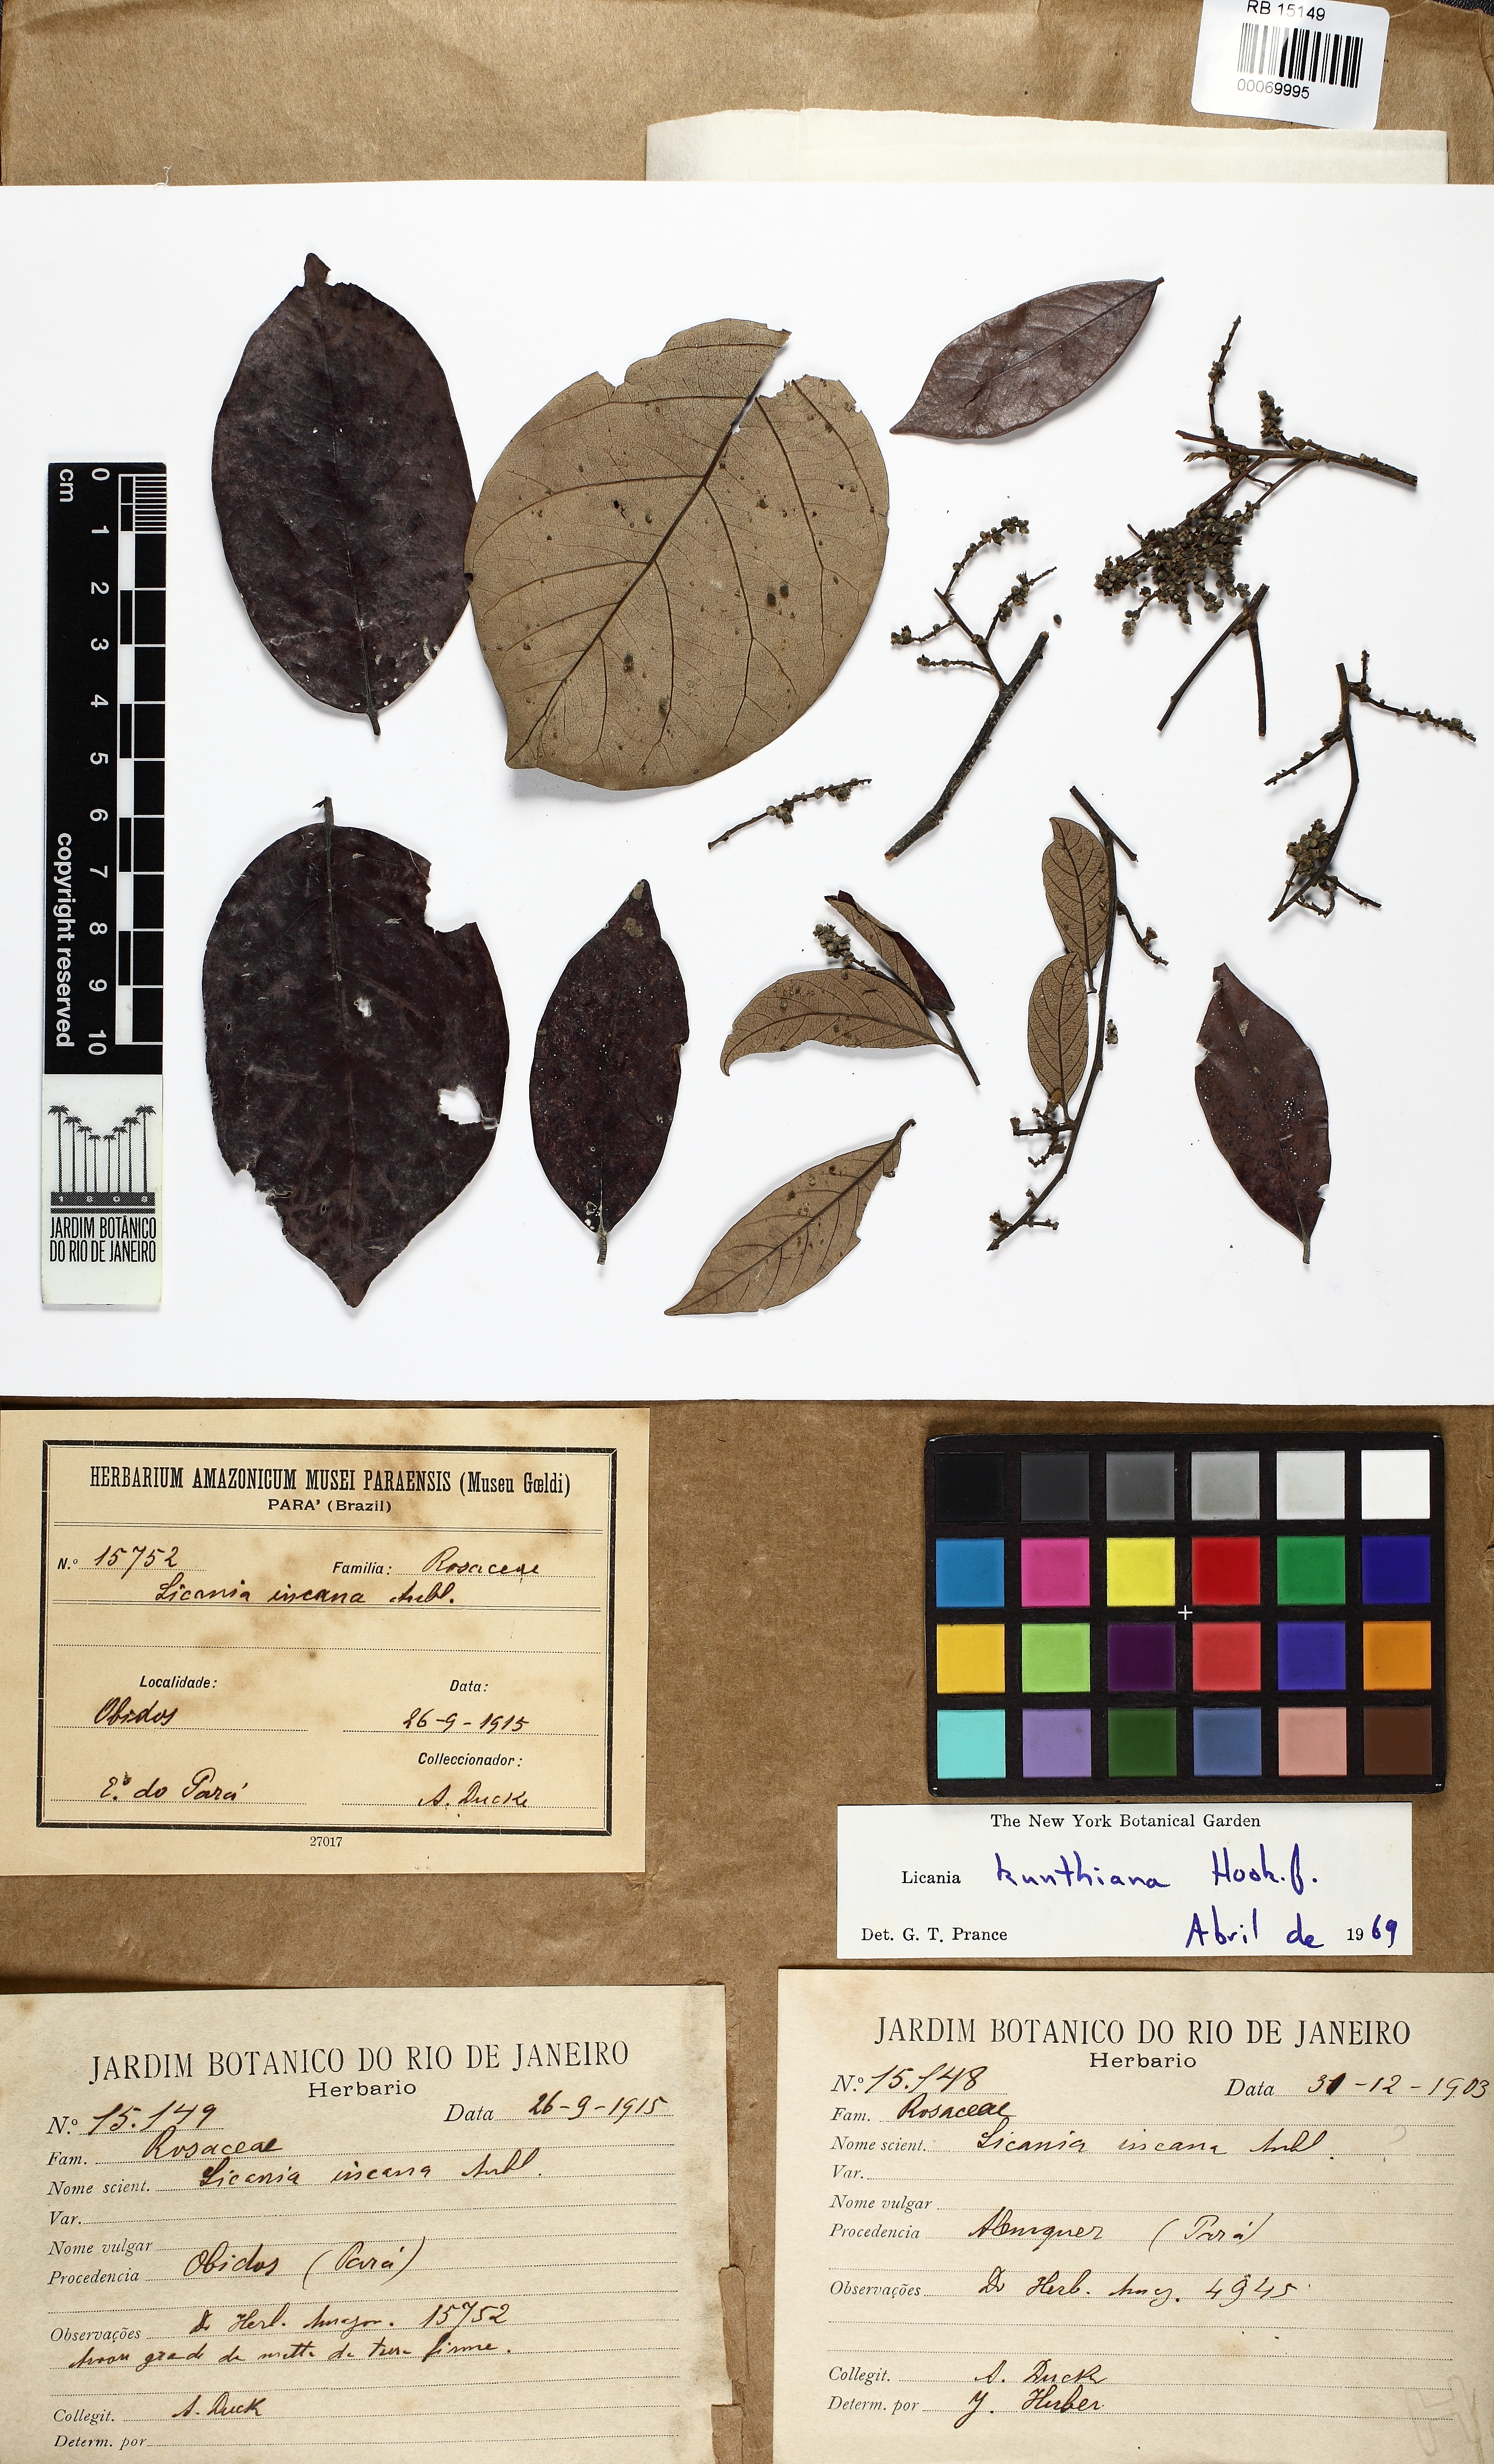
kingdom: Plantae
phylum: Tracheophyta
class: Magnoliopsida
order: Malpighiales
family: Chrysobalanaceae
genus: Licania
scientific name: Licania kunthiana
